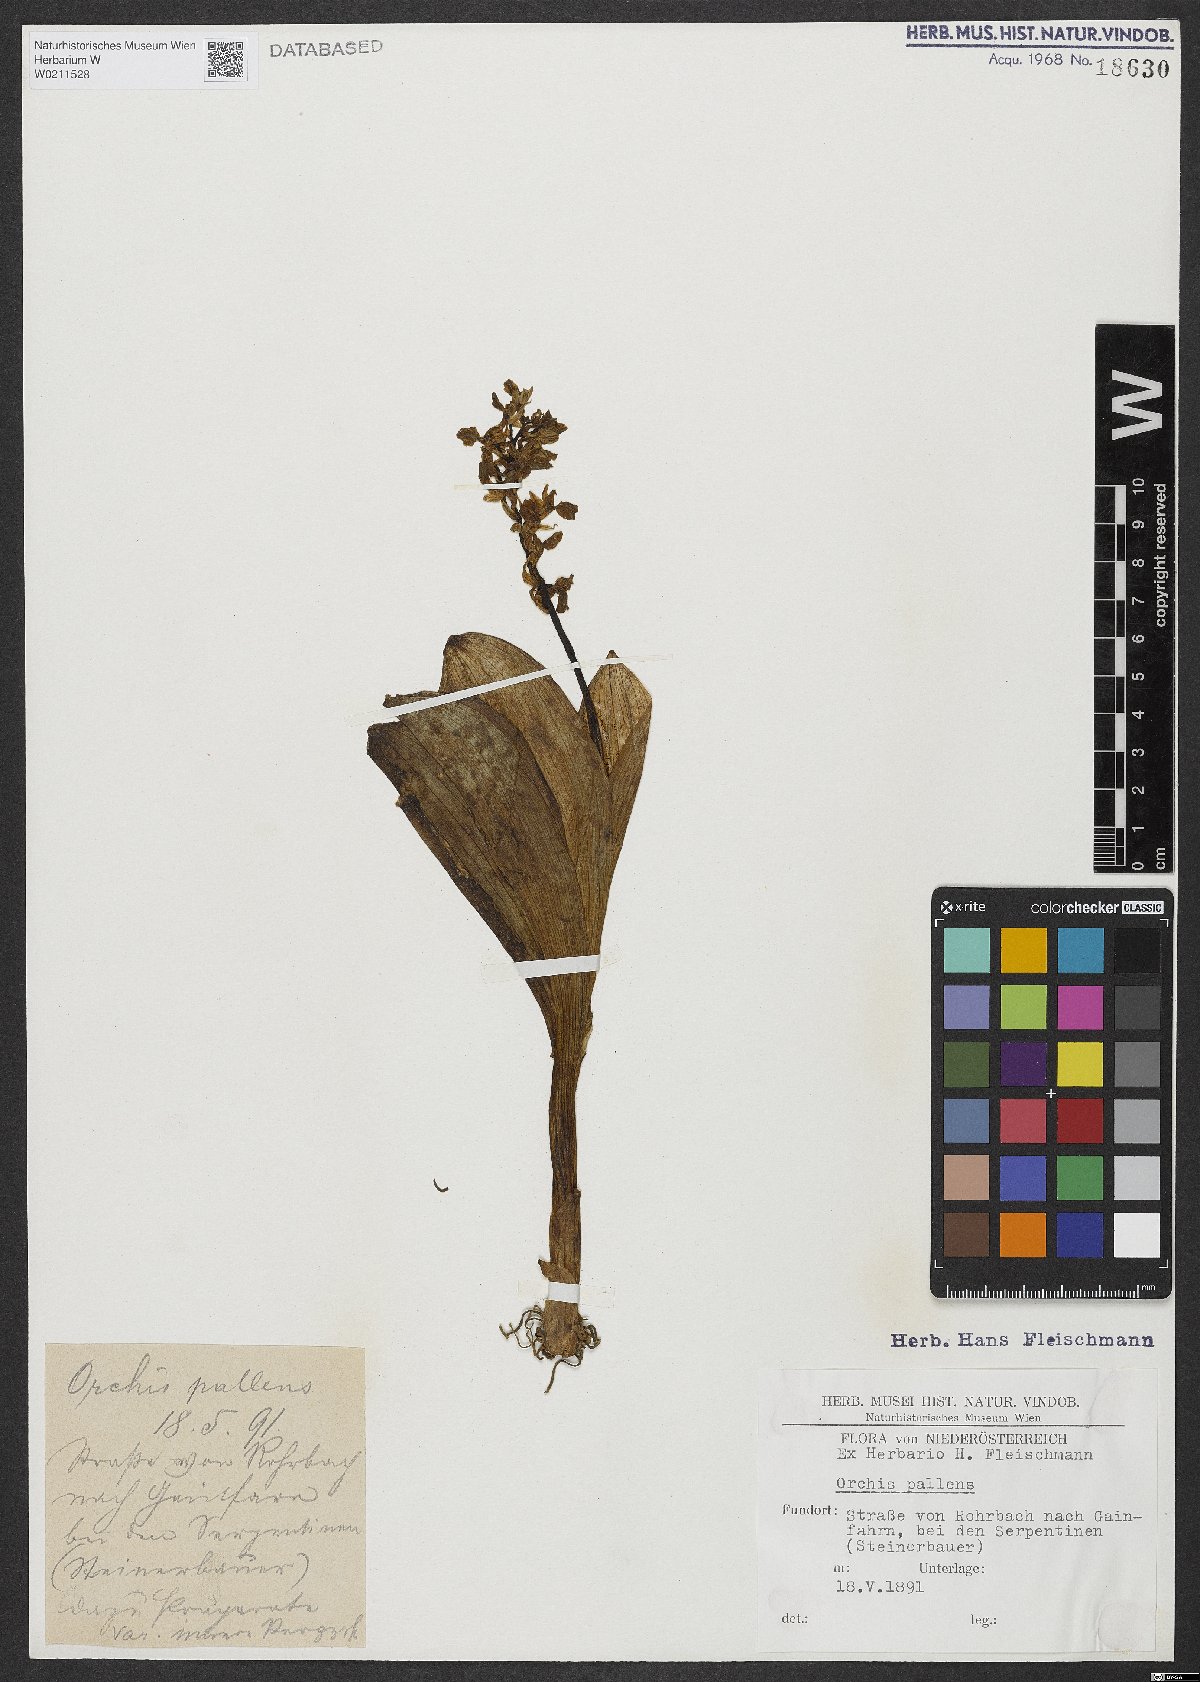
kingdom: Plantae
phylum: Tracheophyta
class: Liliopsida
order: Asparagales
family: Orchidaceae
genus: Orchis
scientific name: Orchis pallens
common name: Pale-flowered orchid
